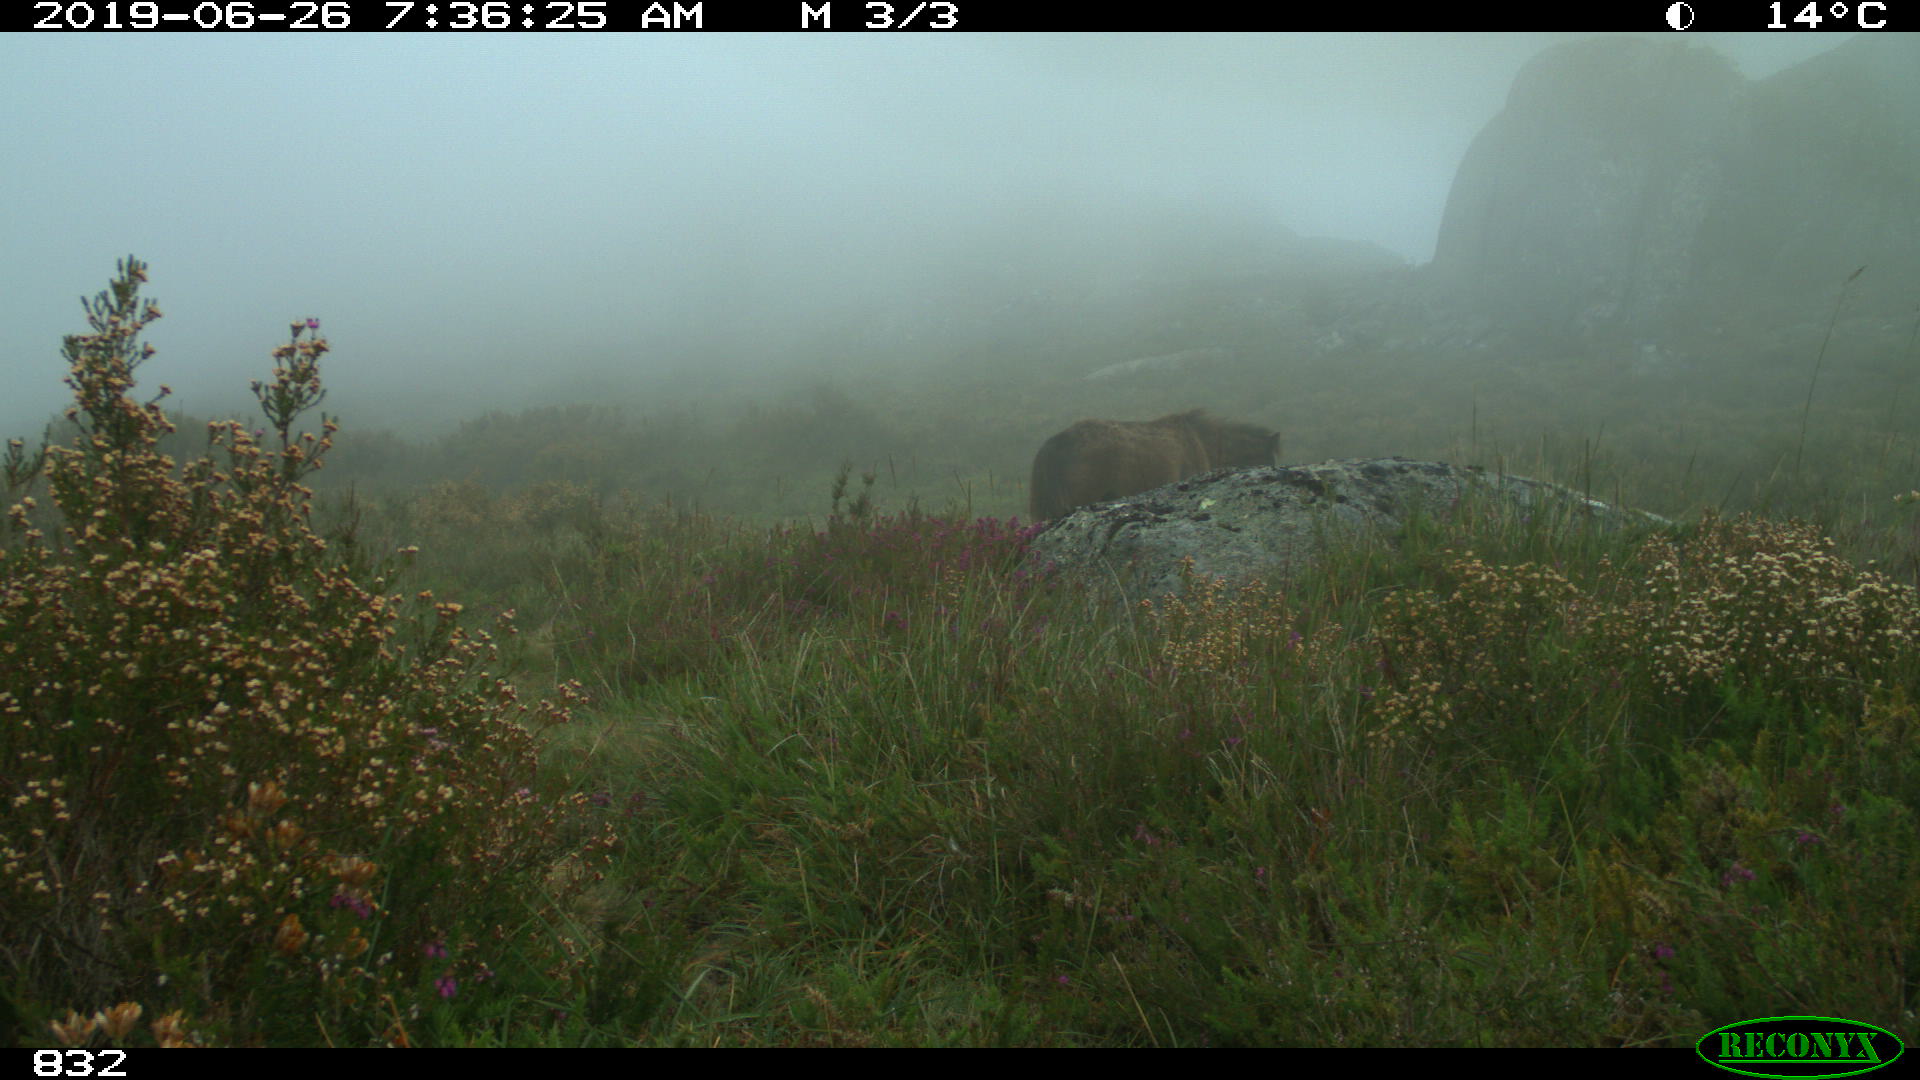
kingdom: Animalia
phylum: Chordata
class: Mammalia
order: Perissodactyla
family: Equidae
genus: Equus
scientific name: Equus caballus
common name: Horse
